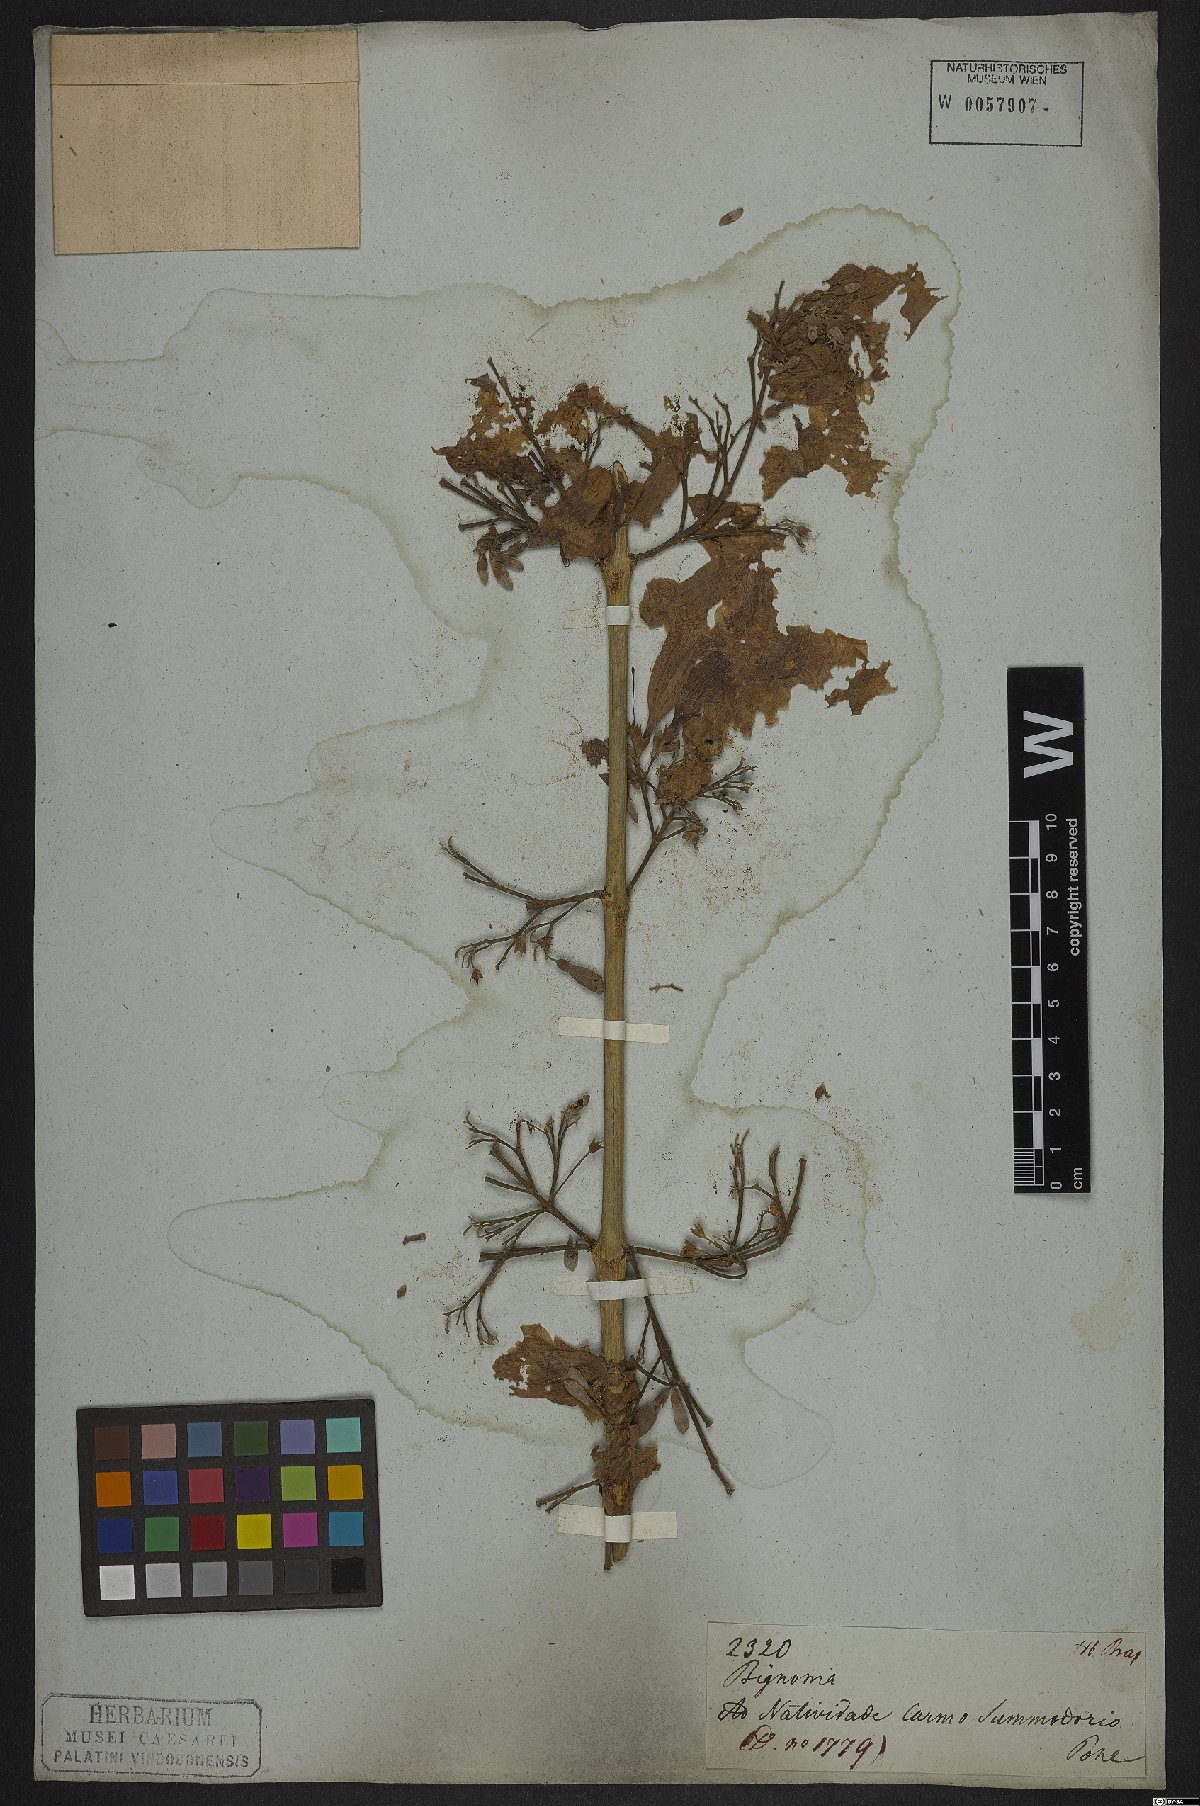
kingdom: Plantae
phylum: Tracheophyta
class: Magnoliopsida
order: Lamiales
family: Bignoniaceae
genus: Cuspidaria
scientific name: Cuspidaria lateriflora
